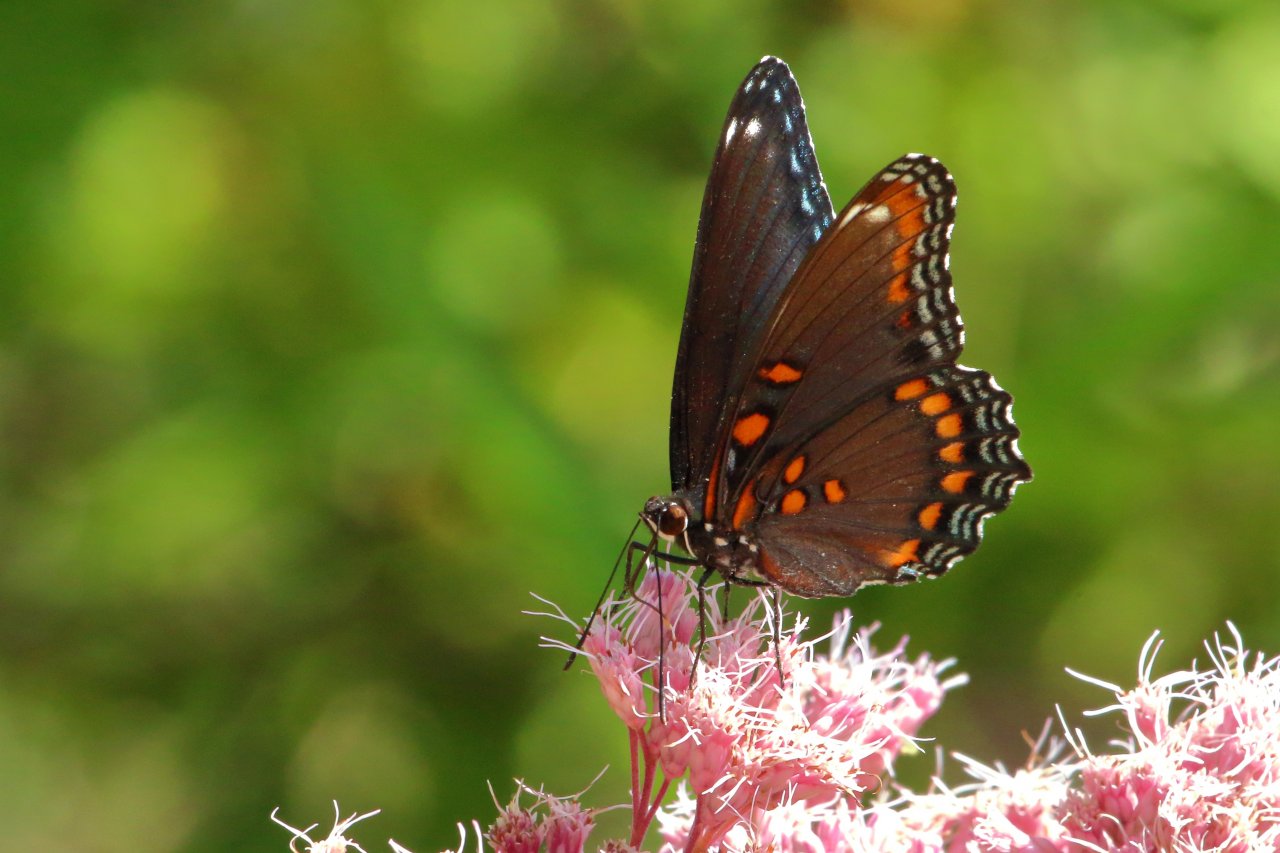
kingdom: Animalia
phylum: Arthropoda
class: Insecta
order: Lepidoptera
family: Nymphalidae
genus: Limenitis
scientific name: Limenitis astyanax
